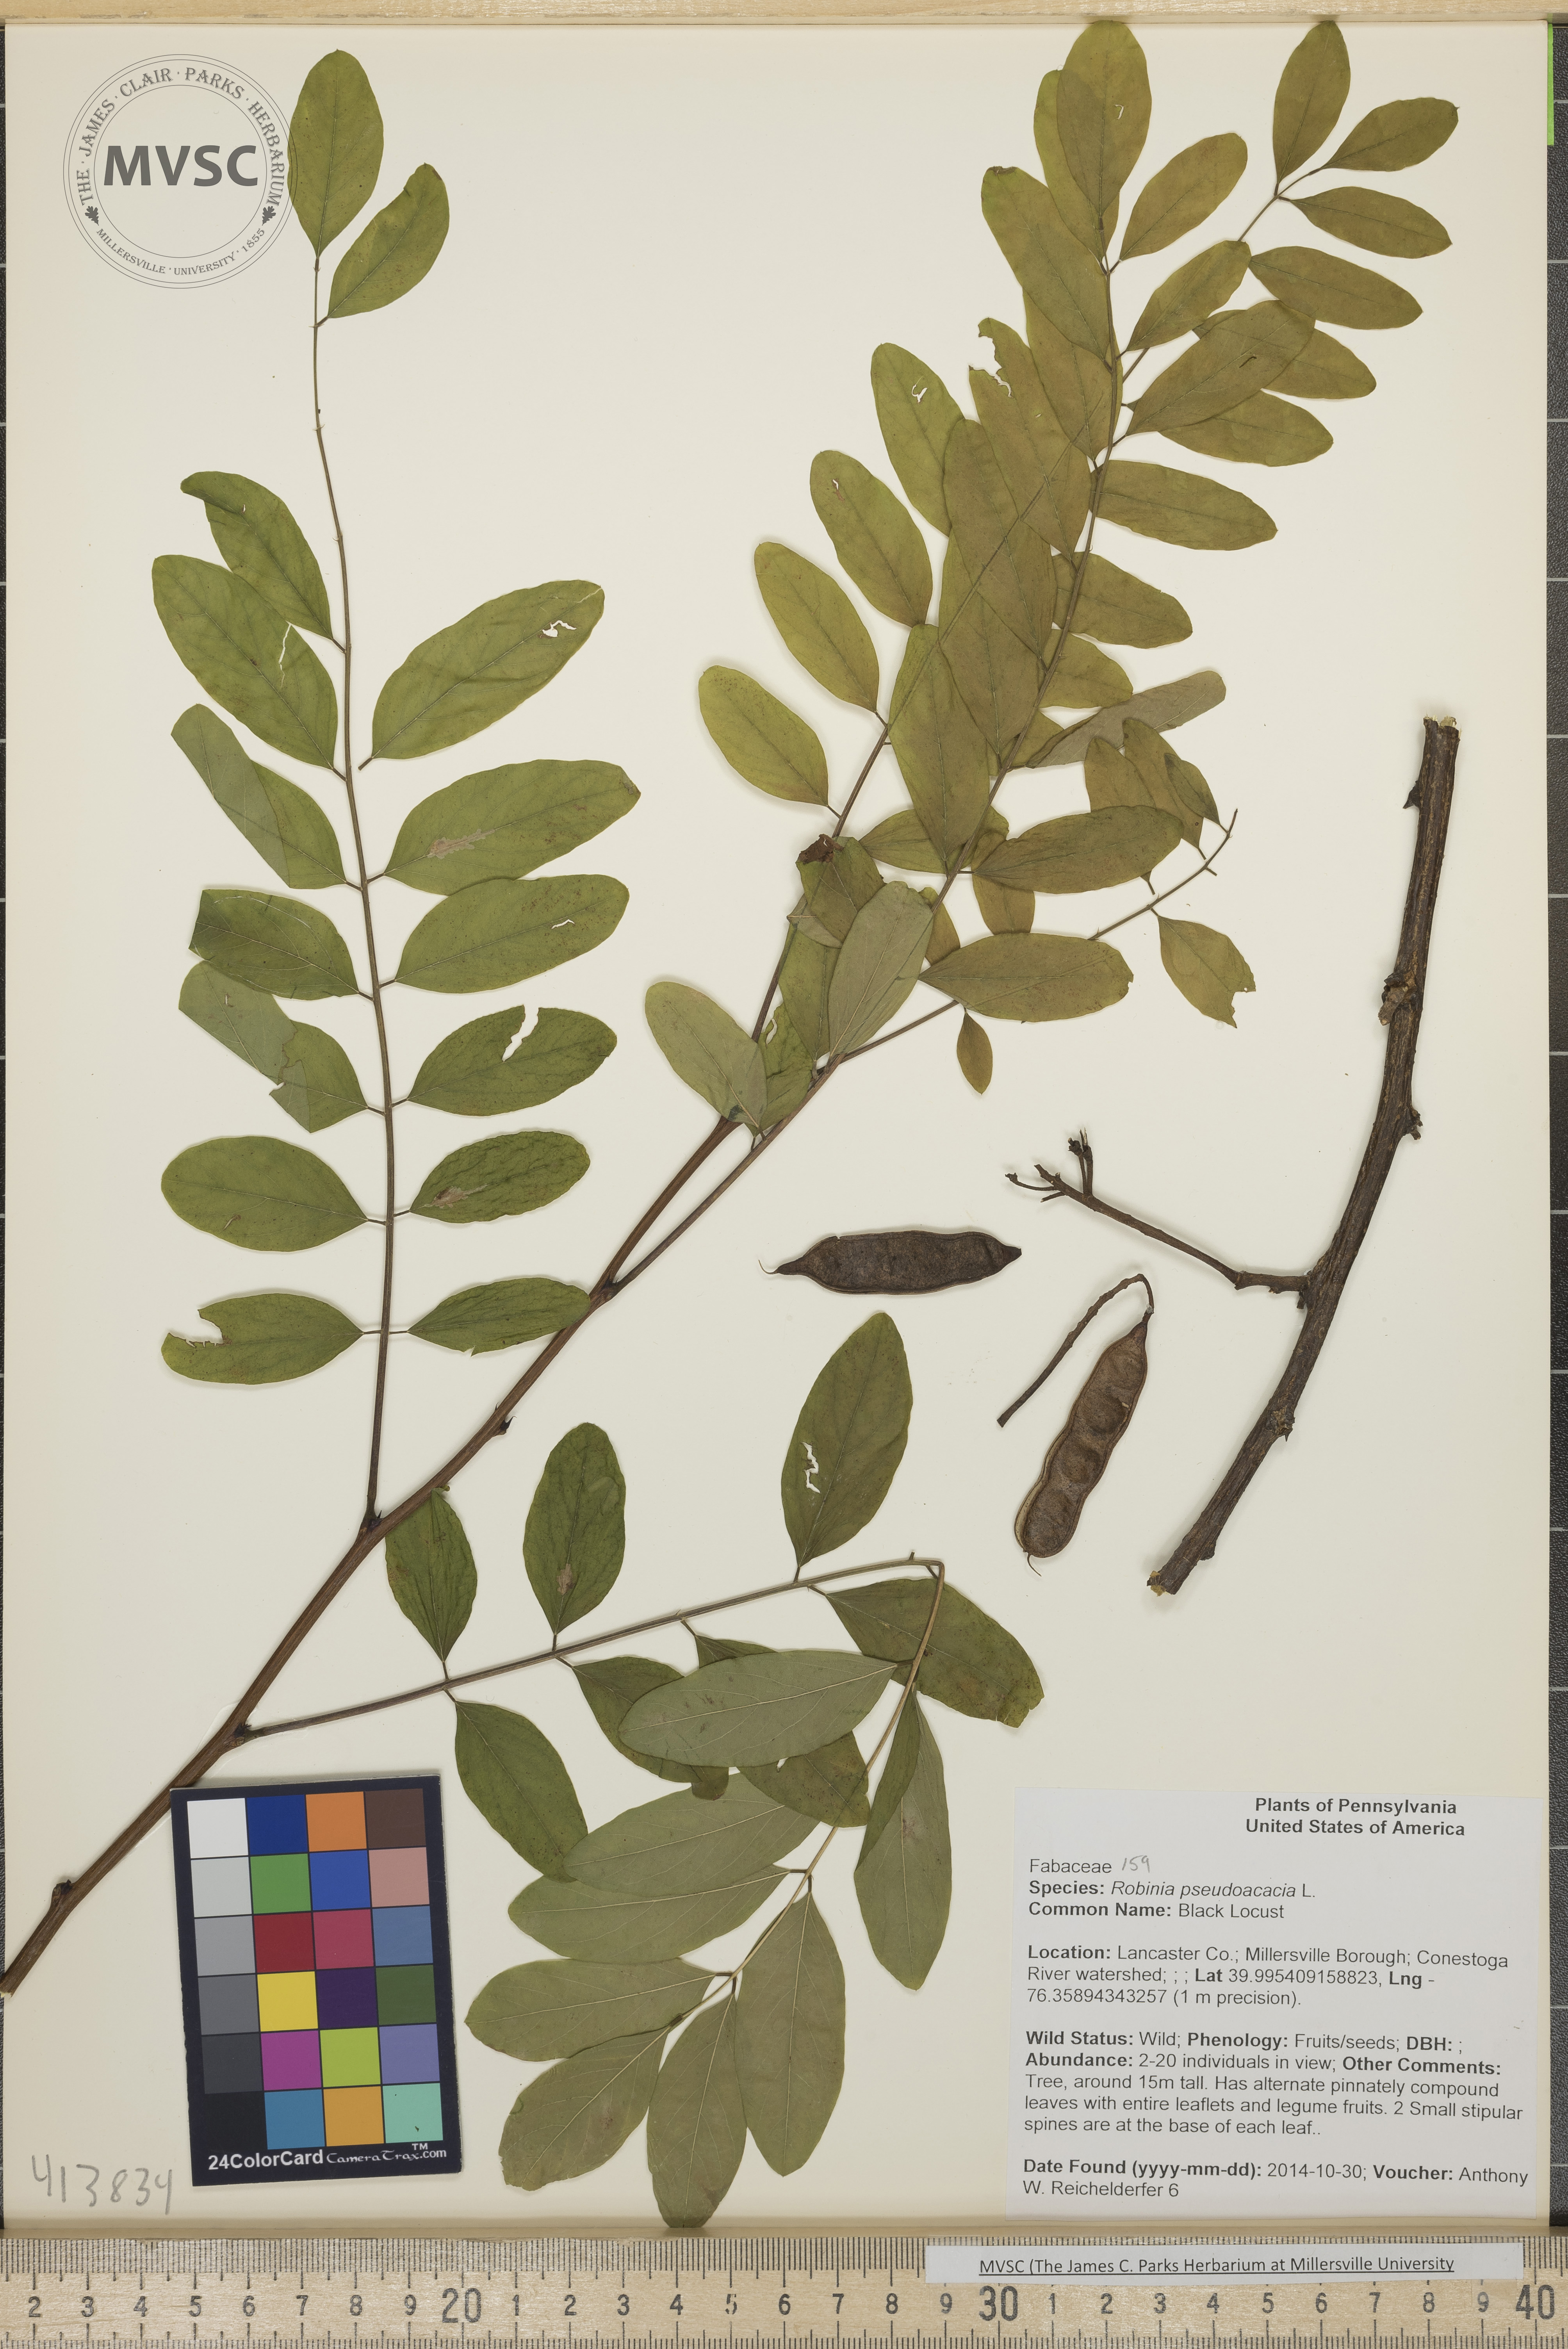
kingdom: Plantae
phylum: Tracheophyta
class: Magnoliopsida
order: Fabales
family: Fabaceae
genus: Robinia
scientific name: Robinia pseudoacacia
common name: Black Locust
